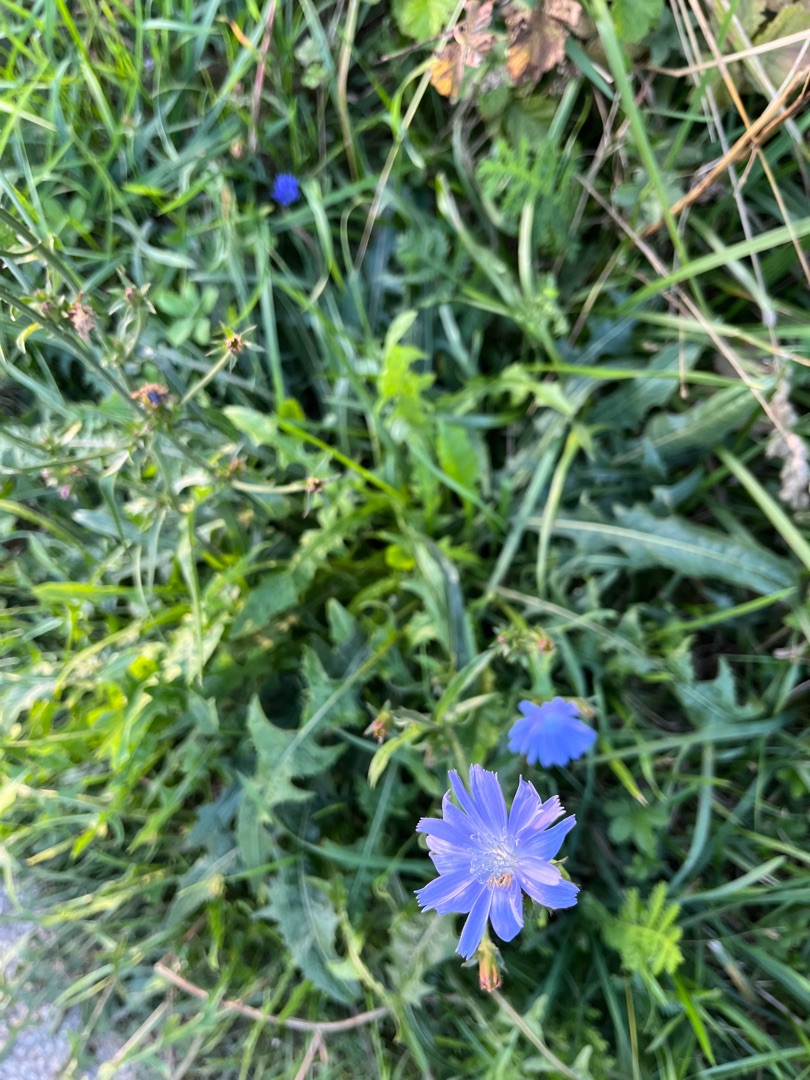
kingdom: Plantae
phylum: Tracheophyta
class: Magnoliopsida
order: Asterales
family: Asteraceae
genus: Cichorium
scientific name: Cichorium intybus
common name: Cikorie
